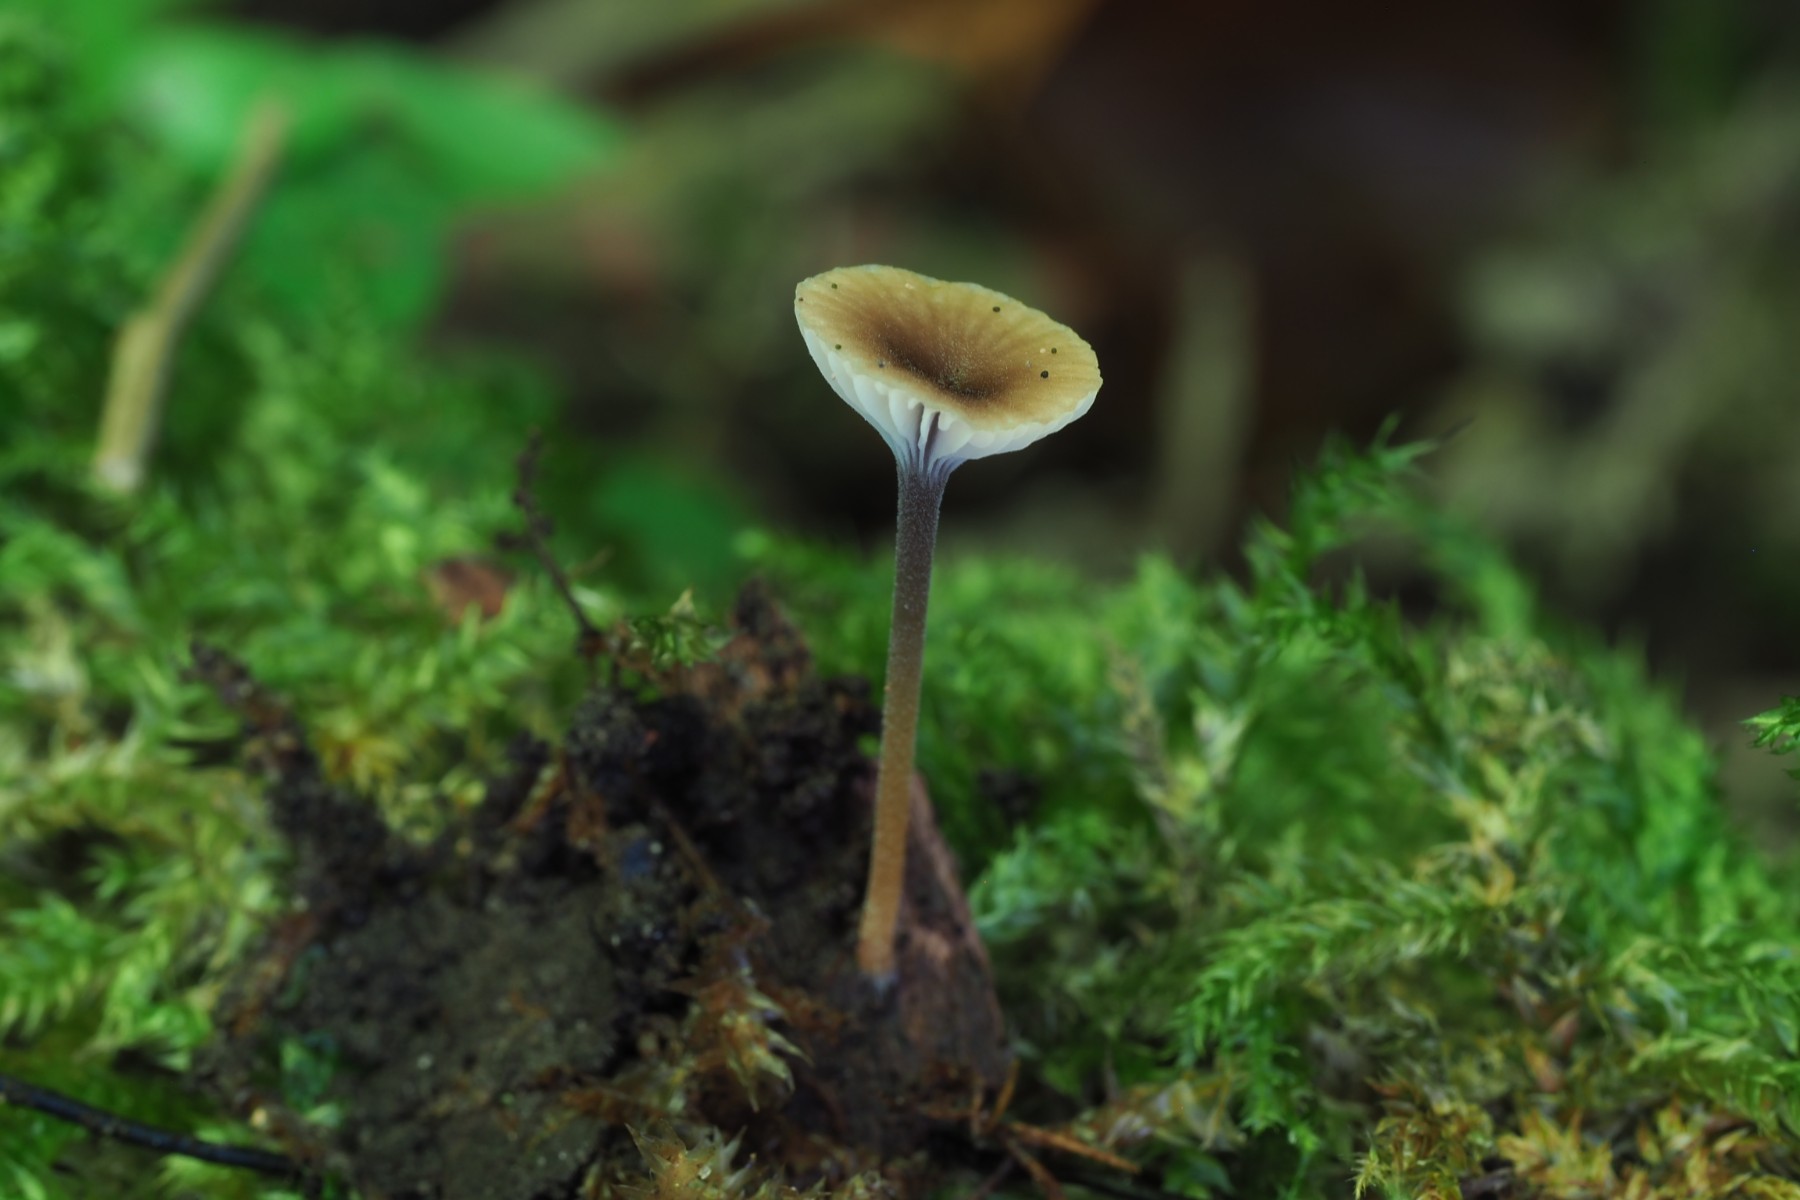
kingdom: Fungi
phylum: Basidiomycota
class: Agaricomycetes
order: Hymenochaetales
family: Rickenellaceae
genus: Rickenella
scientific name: Rickenella swartzii
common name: finstokket mosnavlehat
